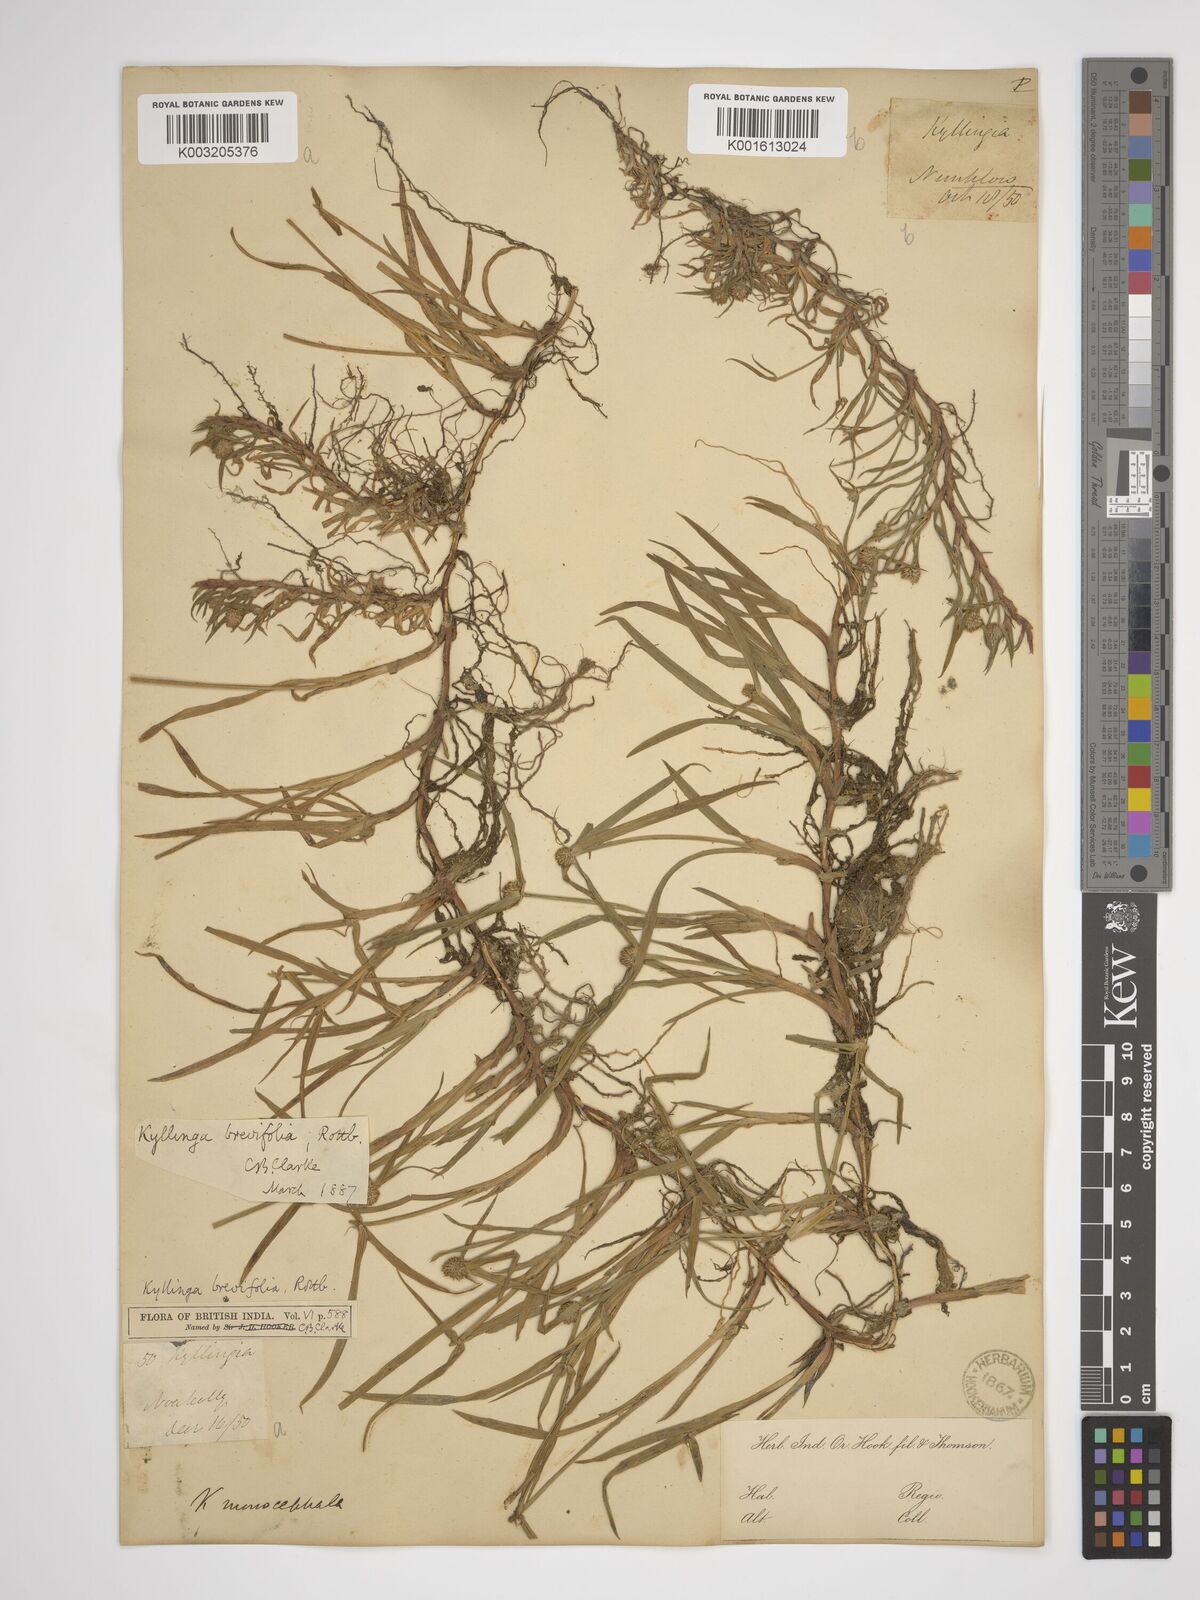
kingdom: Plantae
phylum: Tracheophyta
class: Liliopsida
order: Poales
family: Cyperaceae
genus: Cyperus
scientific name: Cyperus brevifolius
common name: Globe kyllinga
